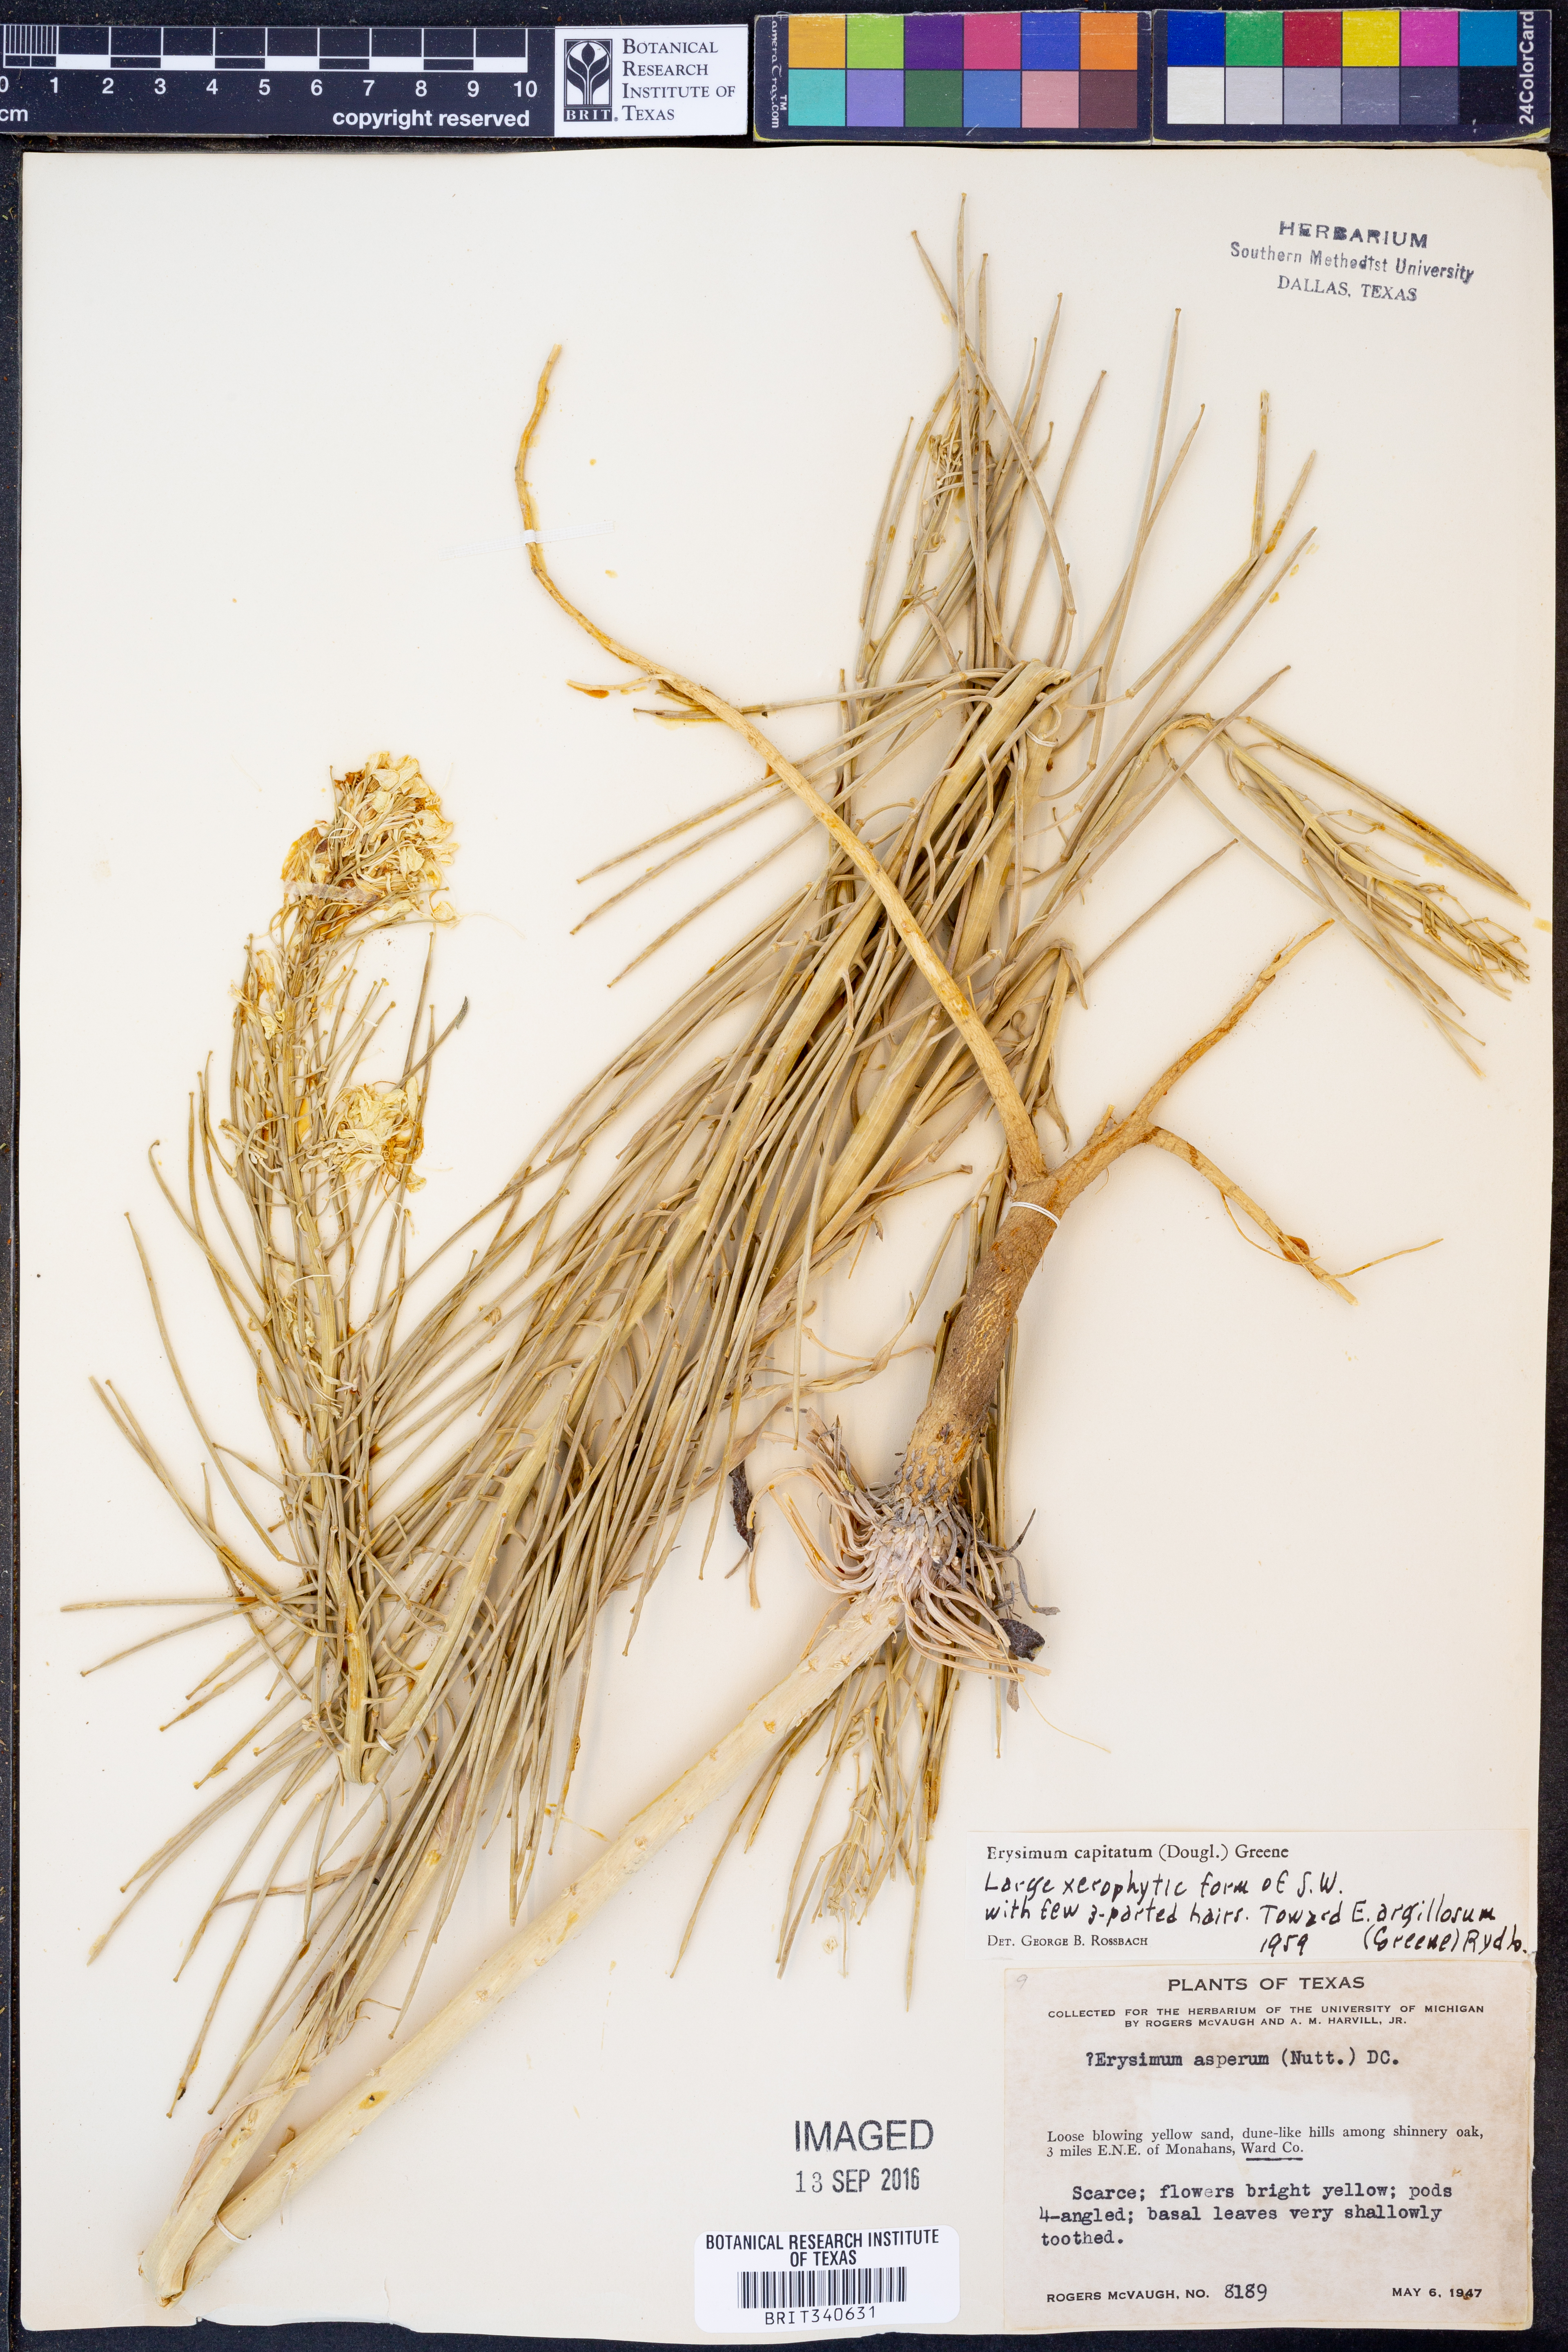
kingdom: Plantae
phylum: Tracheophyta
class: Magnoliopsida
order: Brassicales
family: Brassicaceae
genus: Erysimum
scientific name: Erysimum capitatum
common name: Western wallflower
